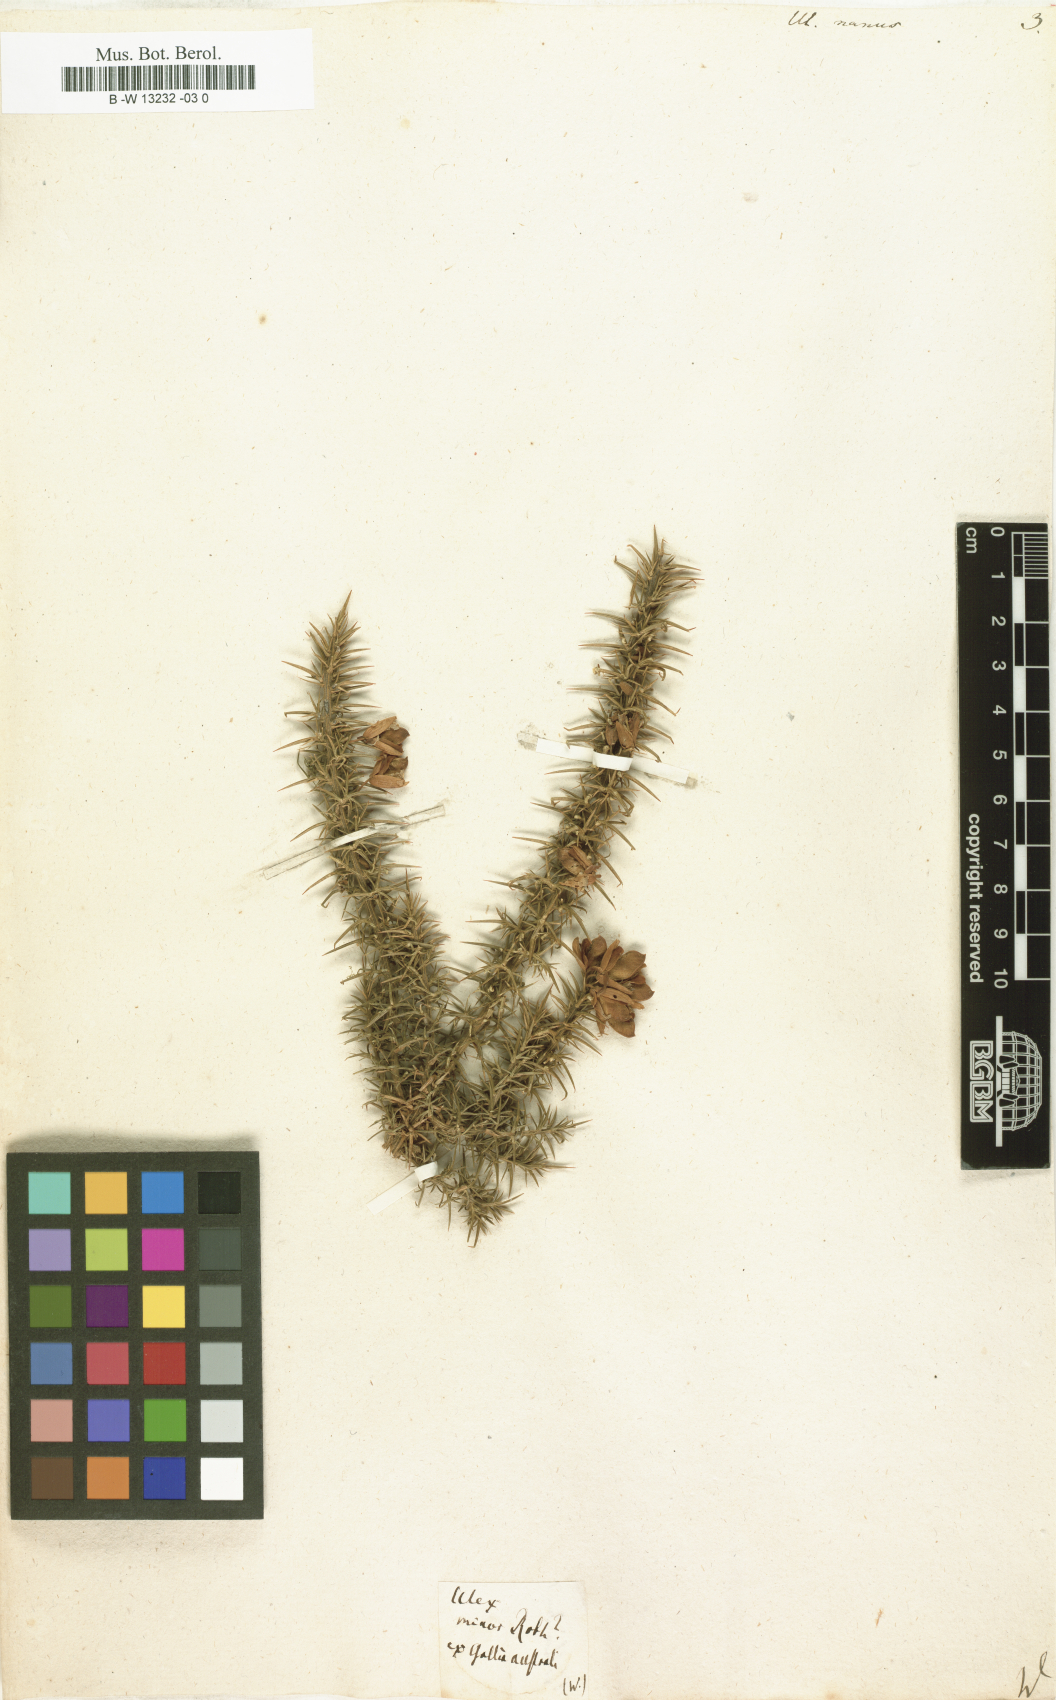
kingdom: Plantae
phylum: Tracheophyta
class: Magnoliopsida
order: Fabales
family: Fabaceae
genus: Ulex
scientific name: Ulex nanus
